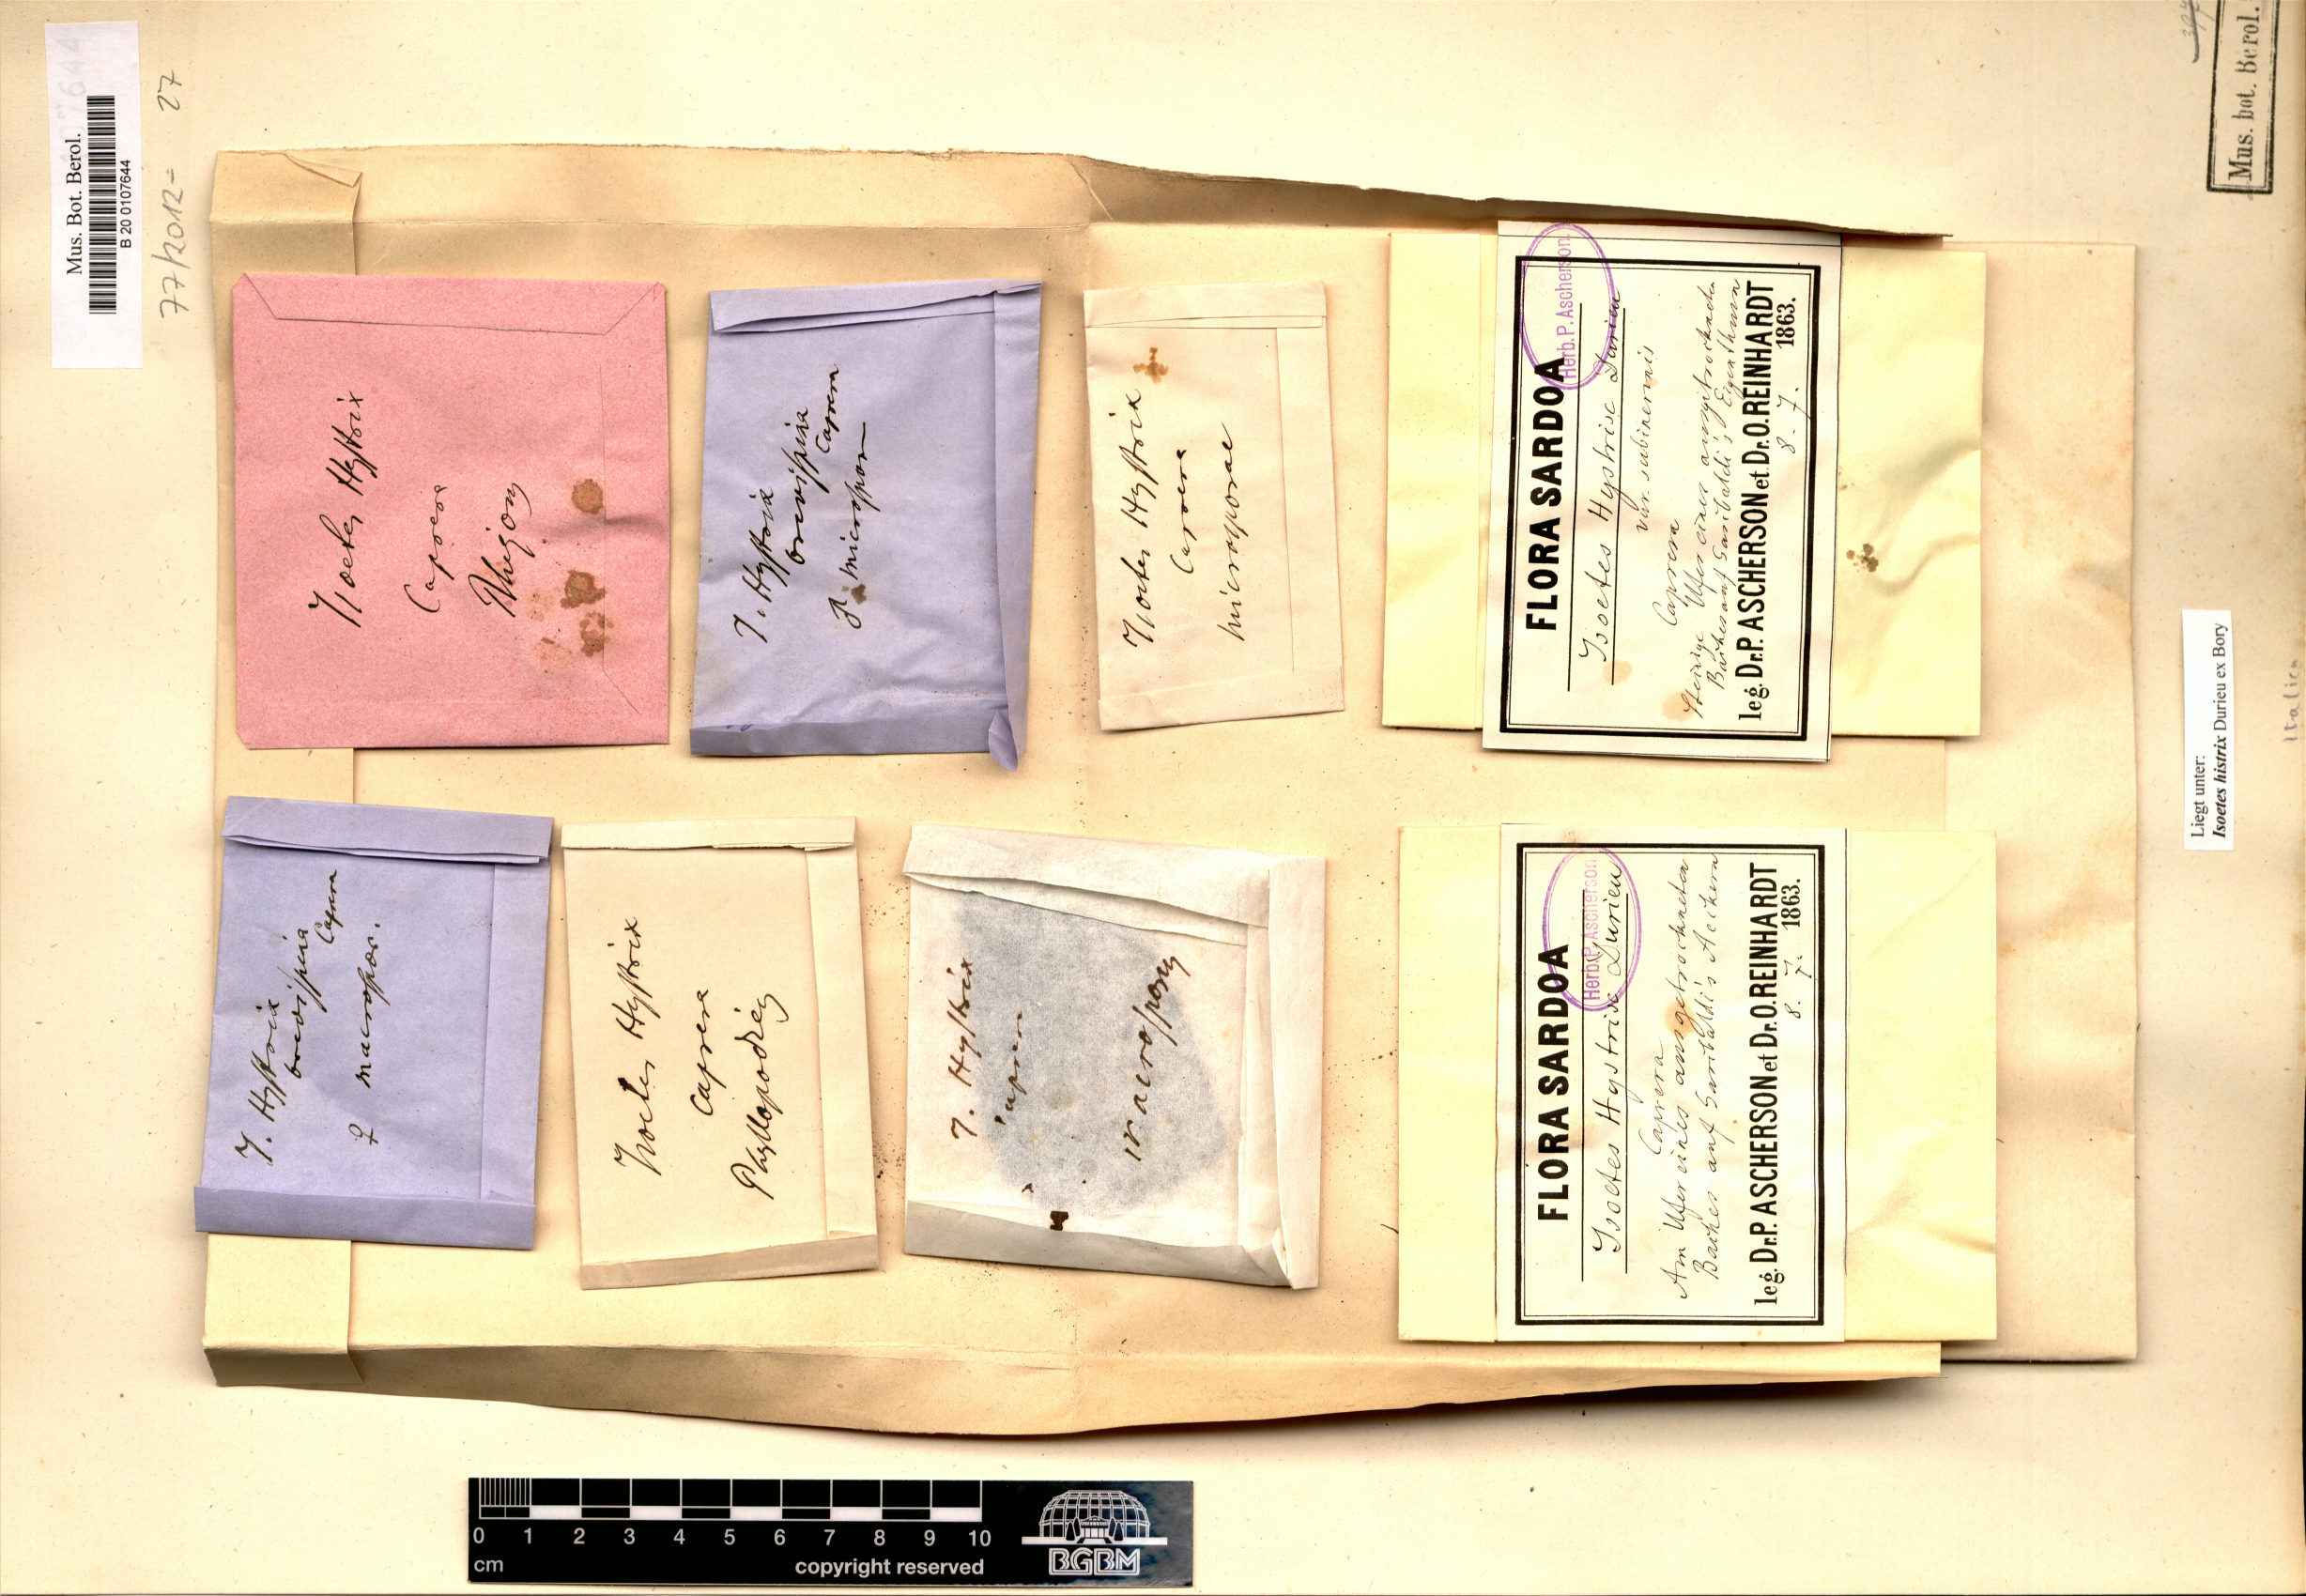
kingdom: Plantae
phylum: Tracheophyta
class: Lycopodiopsida
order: Isoetales
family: Isoetaceae
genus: Isoetes
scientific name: Isoetes histrix
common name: Land quillwort
